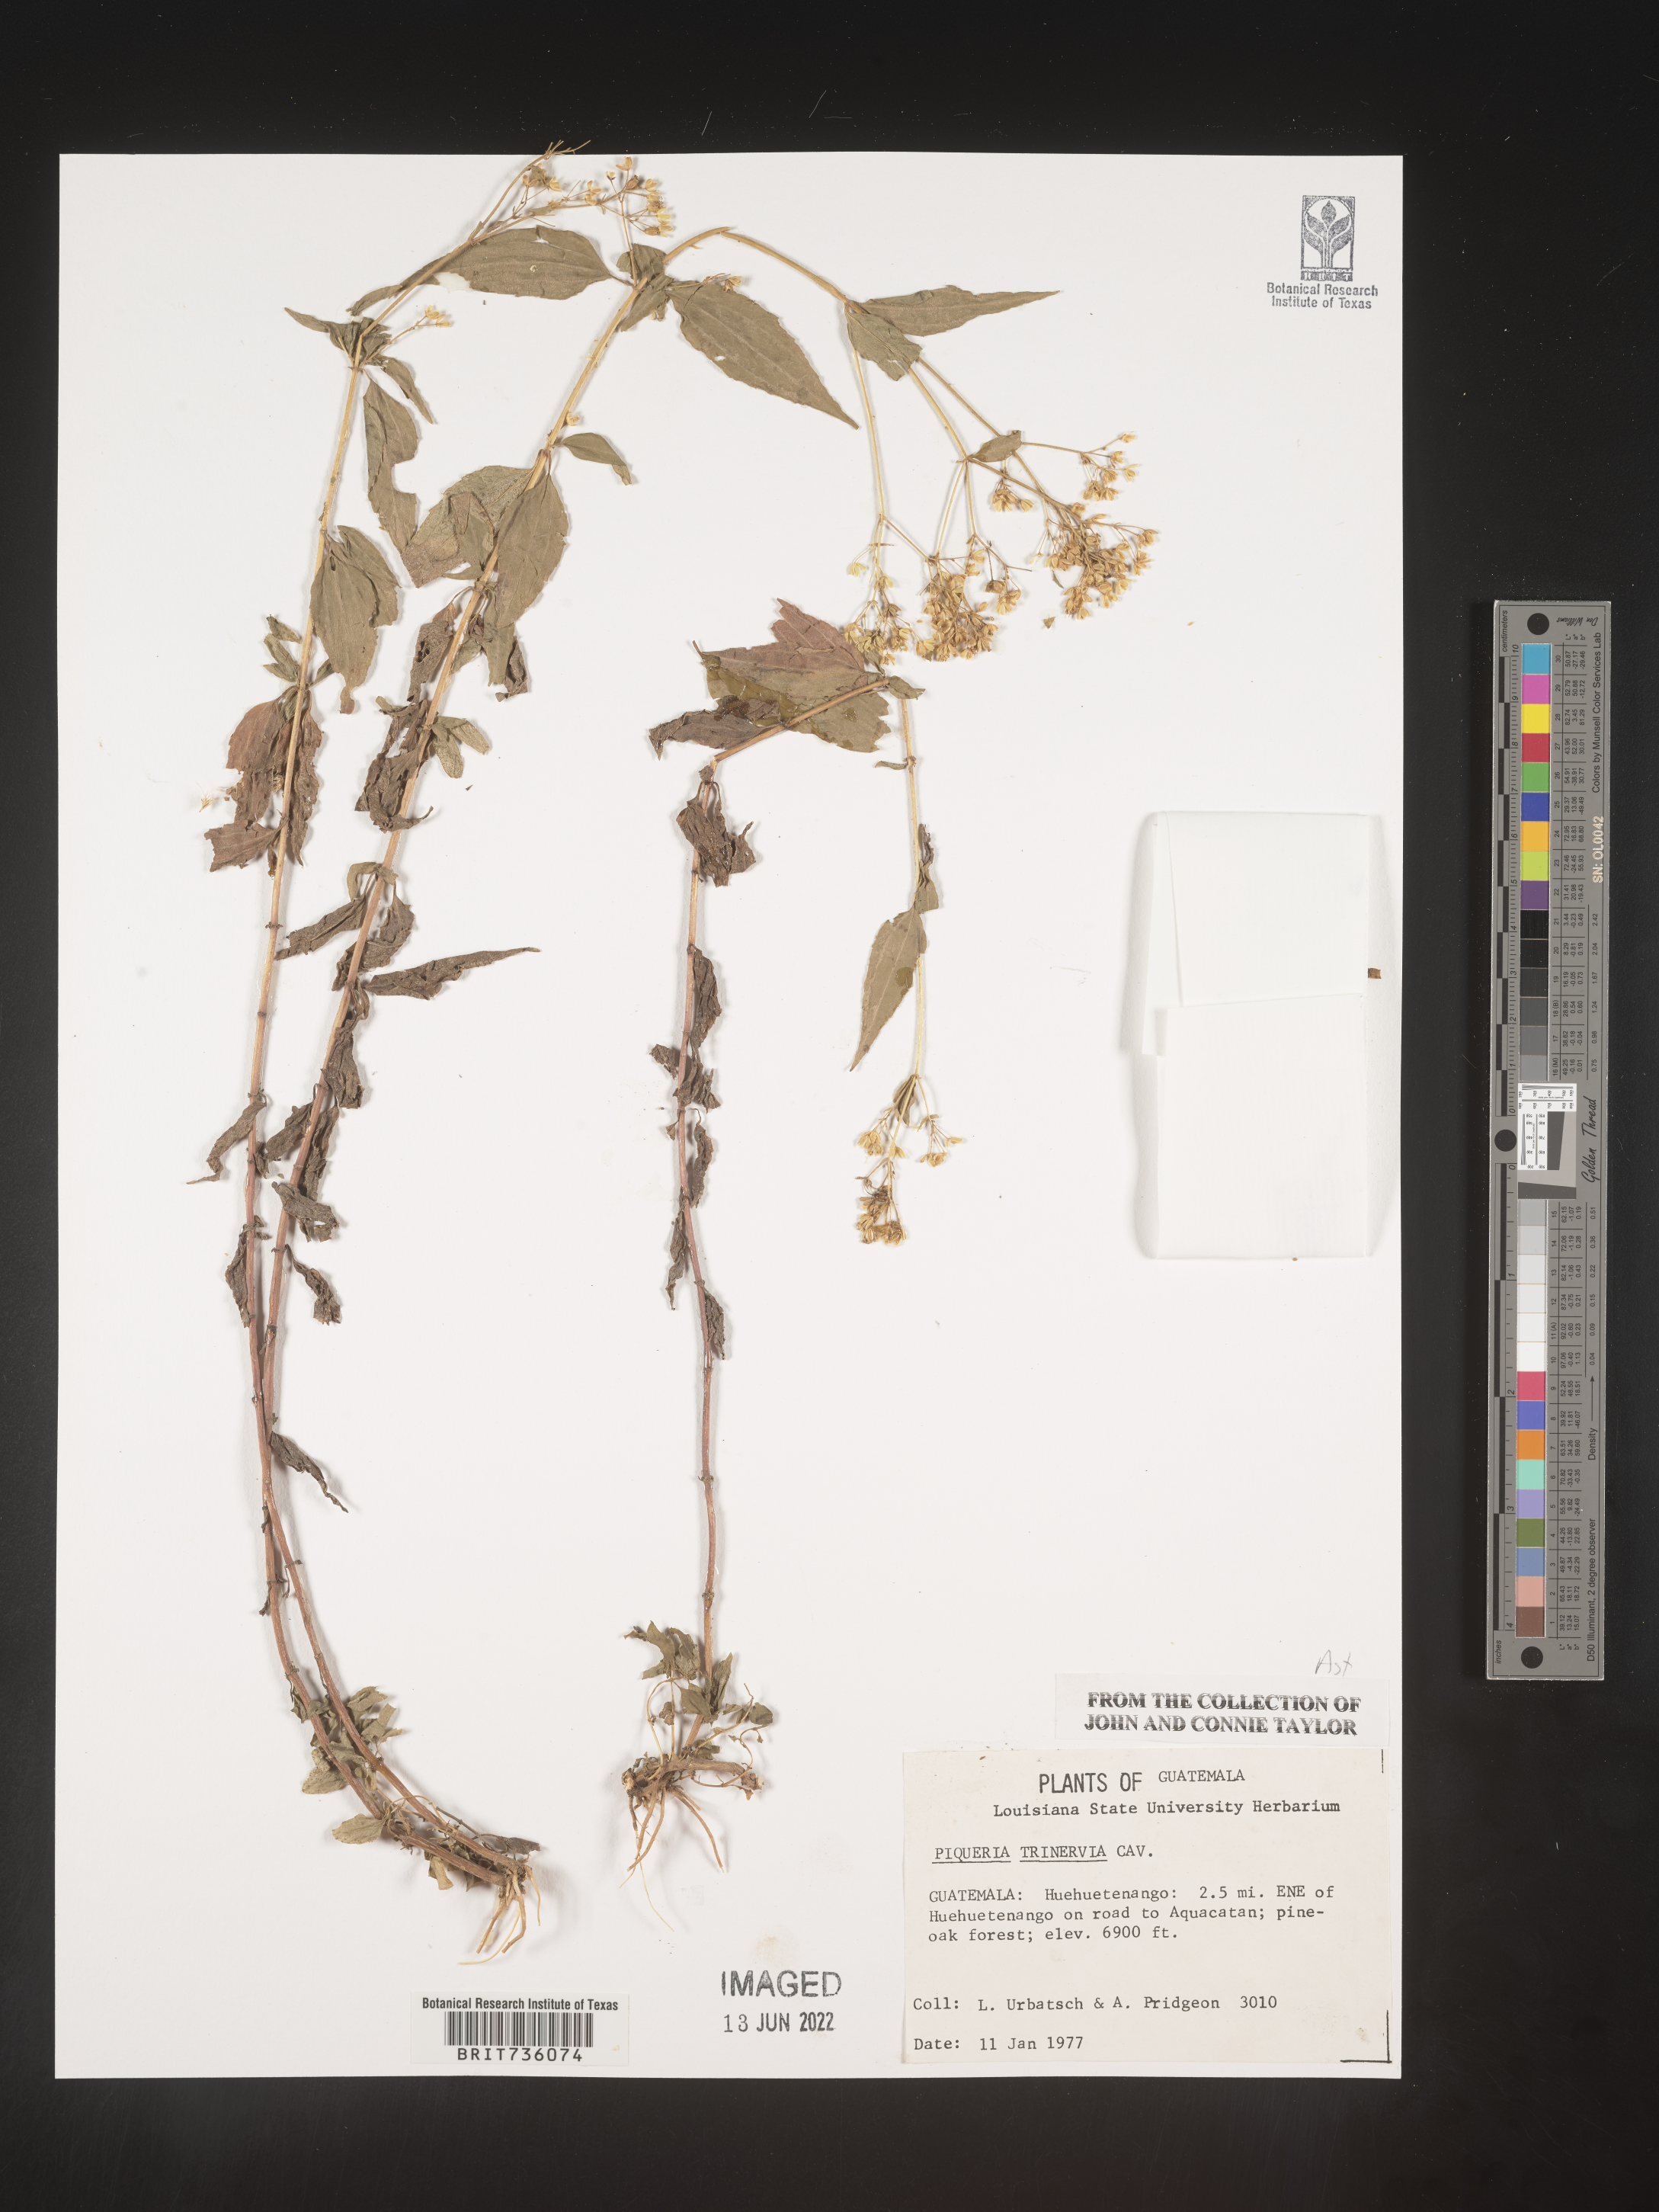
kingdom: Plantae
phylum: Tracheophyta
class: Magnoliopsida
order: Asterales
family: Asteraceae
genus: Piqueria
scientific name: Piqueria
